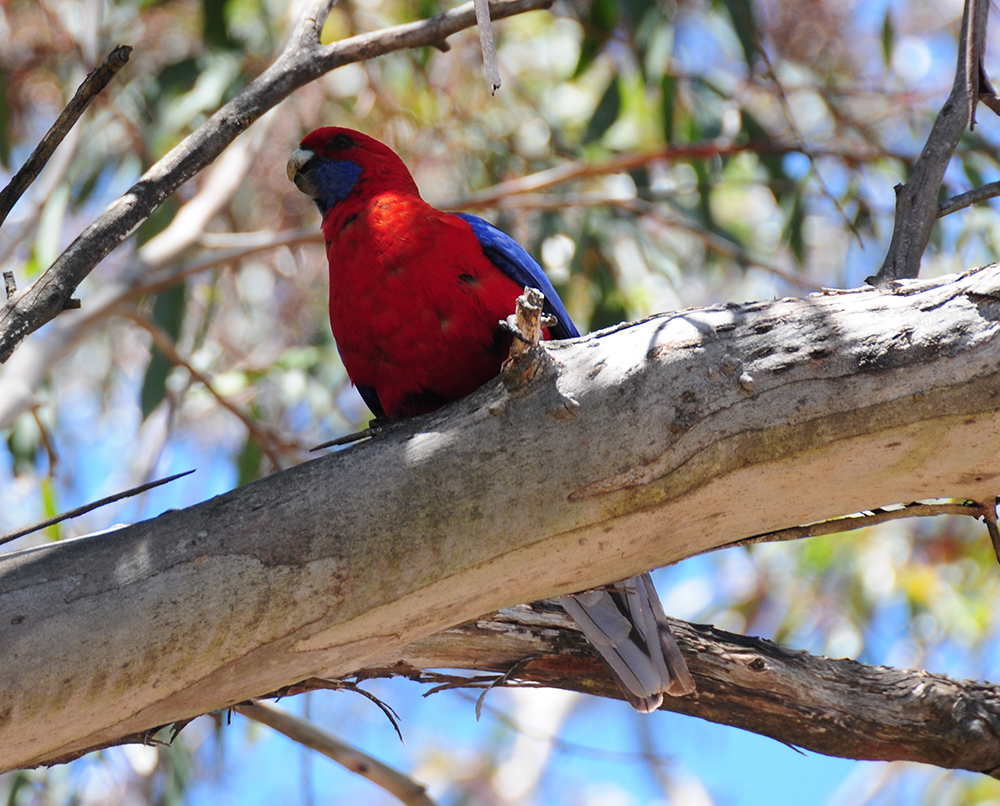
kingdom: Animalia
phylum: Chordata
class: Aves
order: Psittaciformes
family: Psittacidae
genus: Platycercus
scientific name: Platycercus elegans
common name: Crimson rosella
